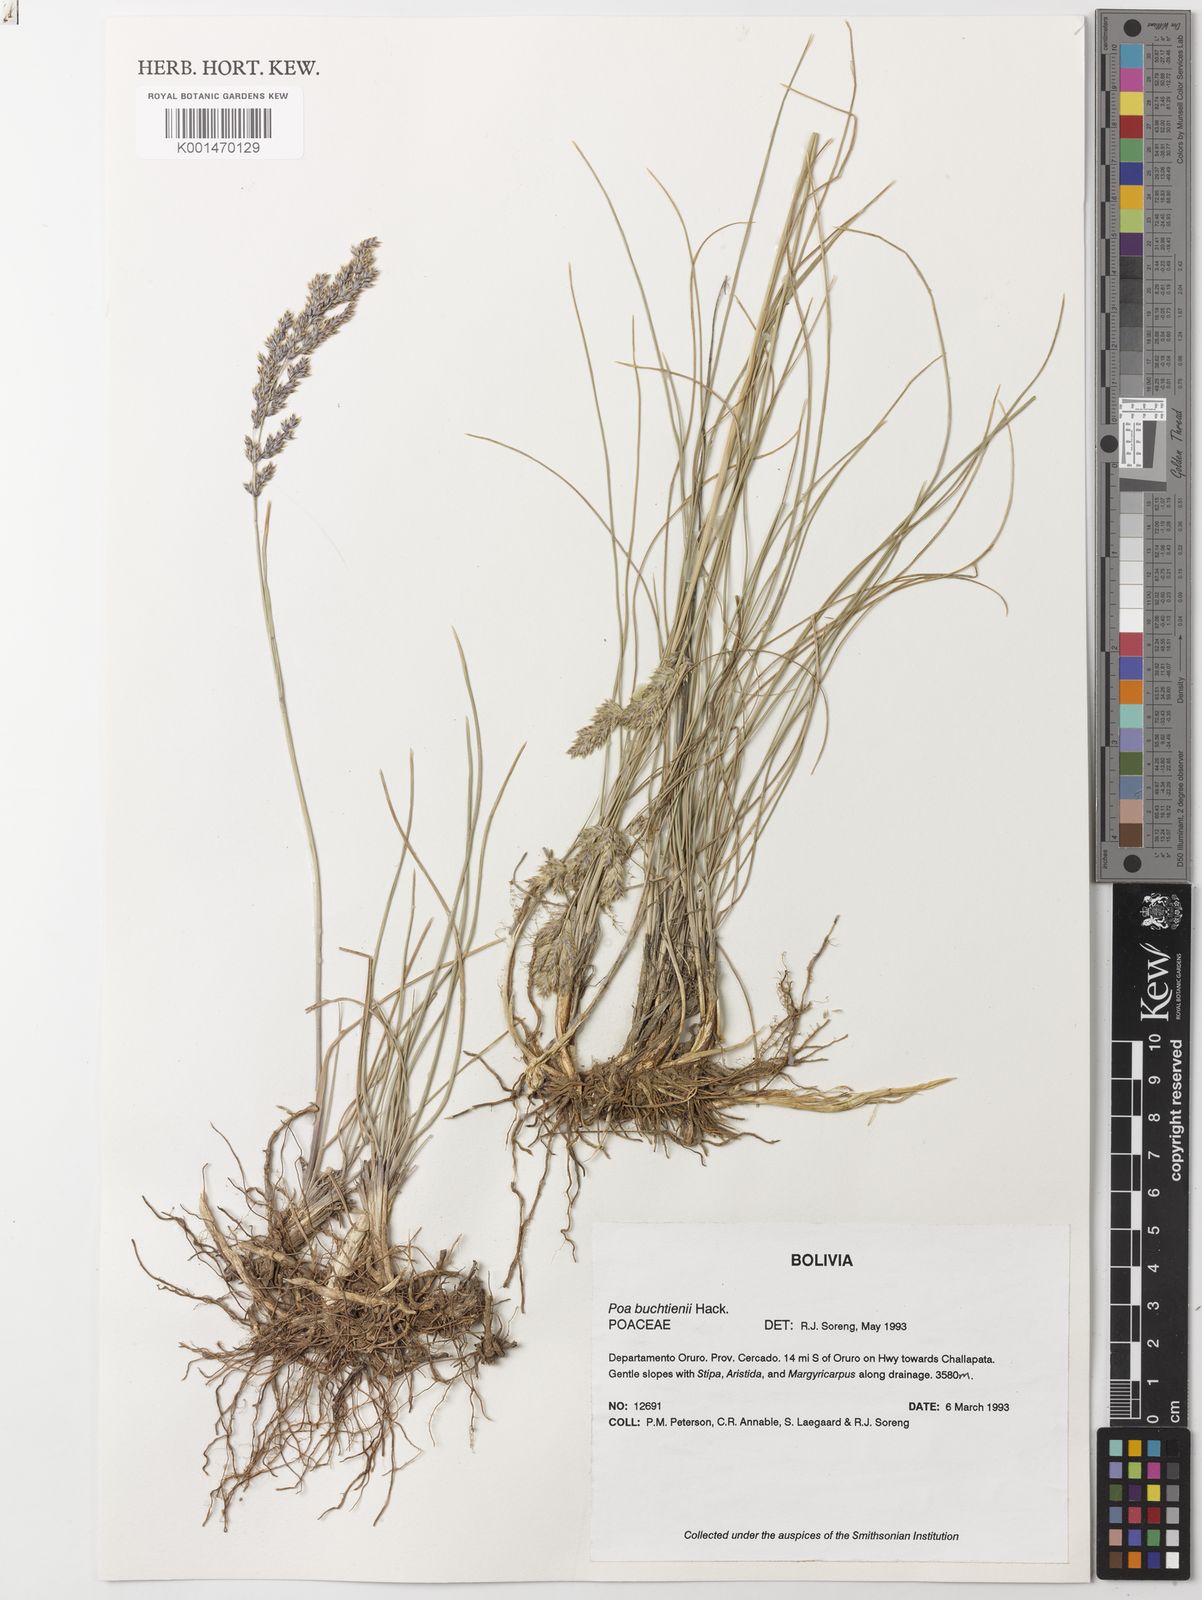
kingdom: Plantae
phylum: Tracheophyta
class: Liliopsida
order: Poales
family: Poaceae
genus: Poa
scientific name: Poa calchaquiensis
